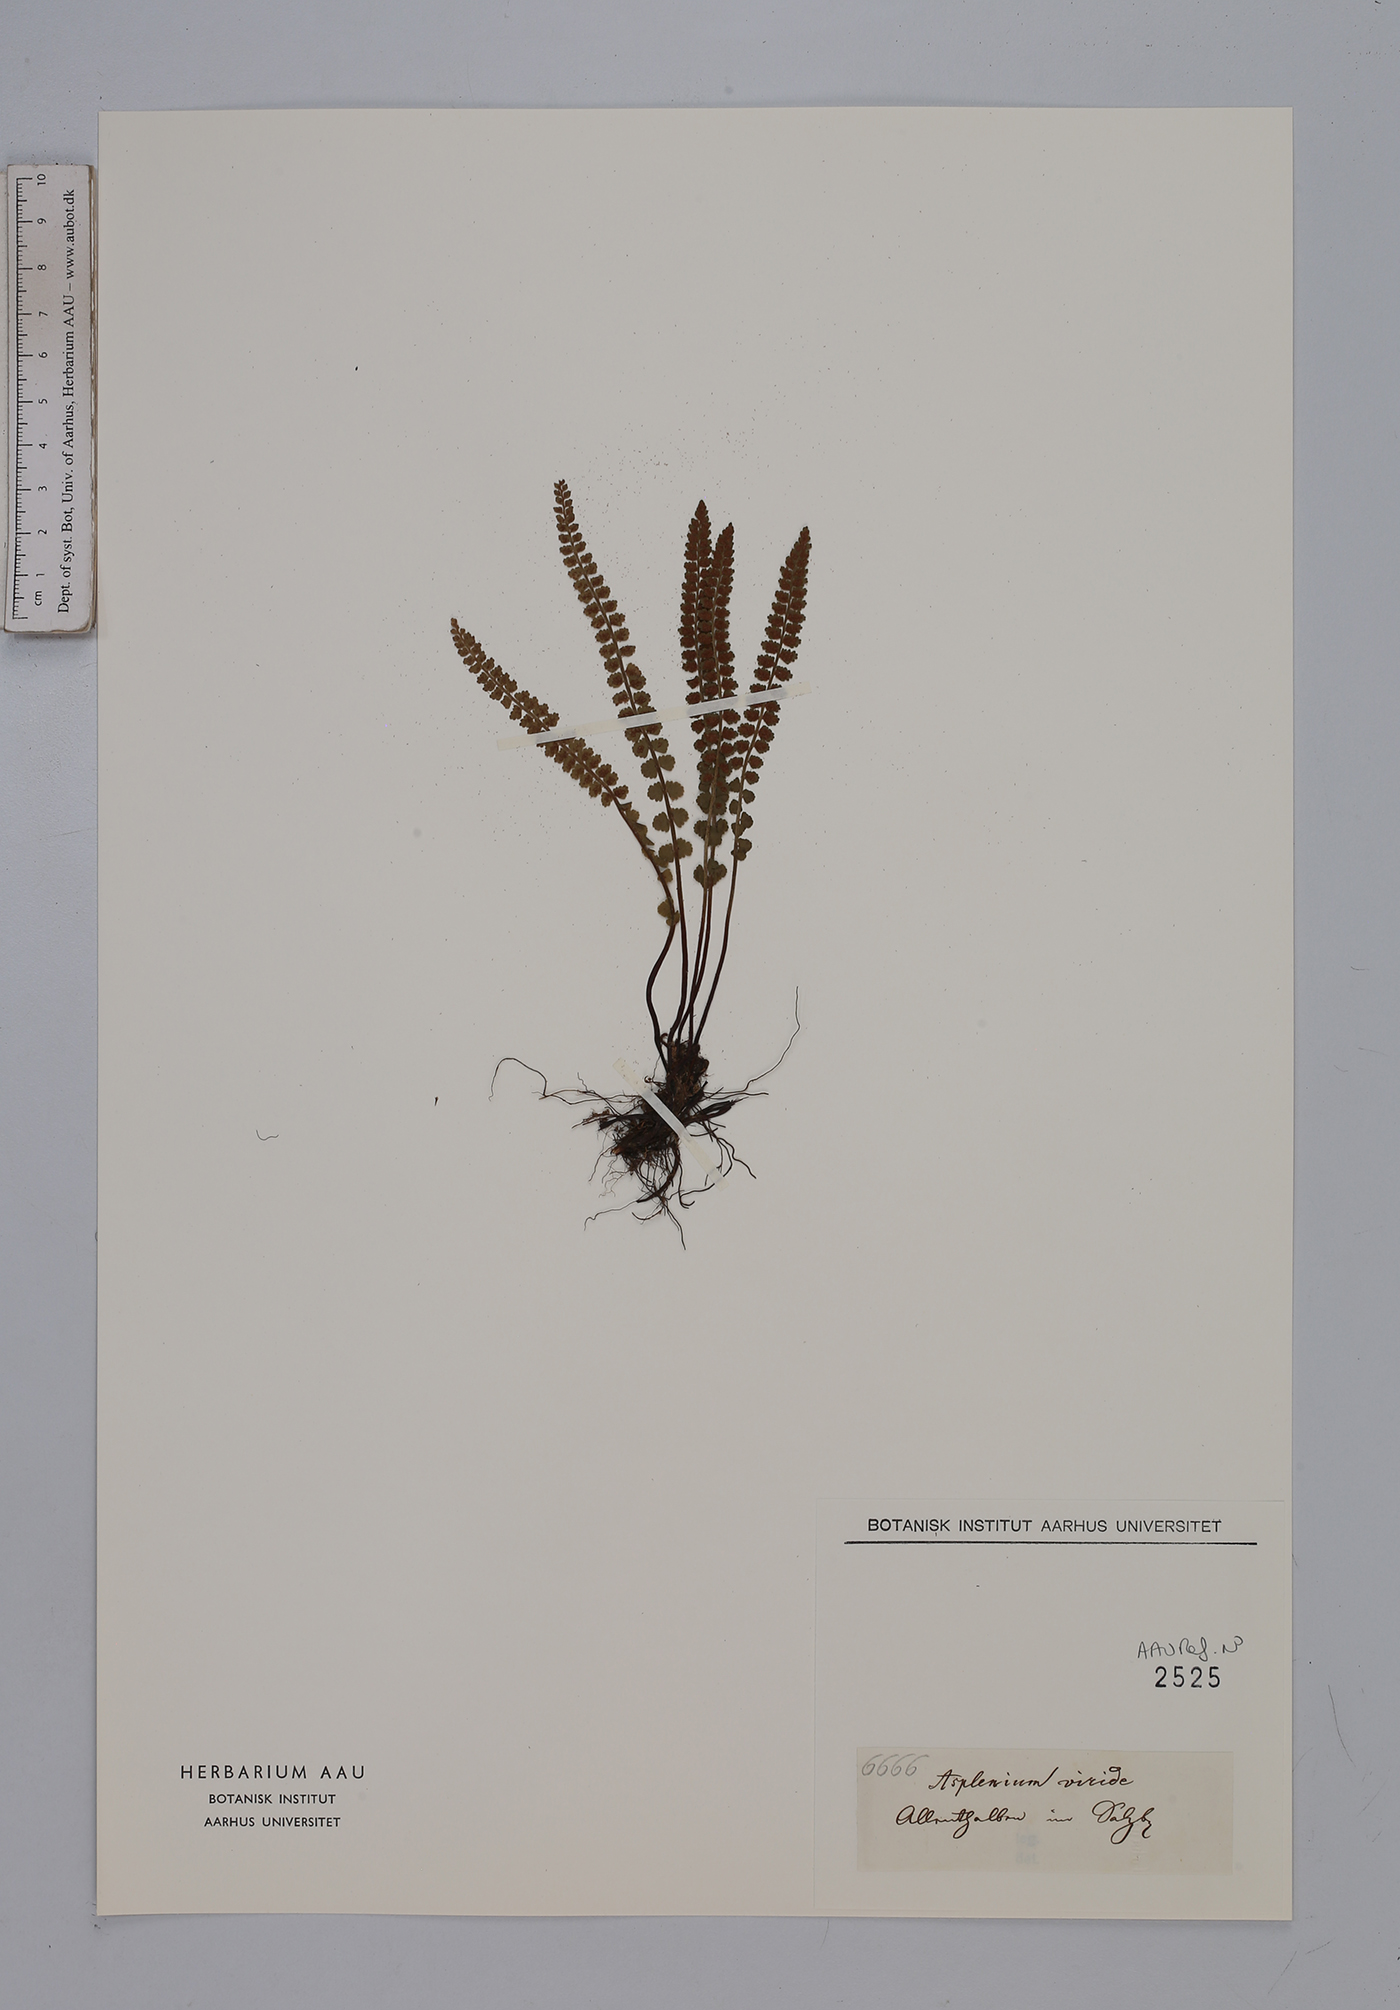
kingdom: Plantae
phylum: Tracheophyta
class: Polypodiopsida
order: Polypodiales
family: Aspleniaceae
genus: Asplenium
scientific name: Asplenium viride
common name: Green spleenwort
